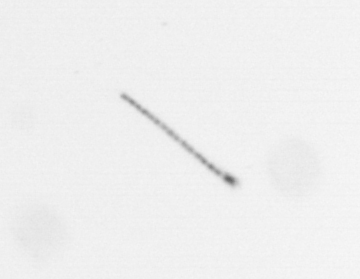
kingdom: Chromista
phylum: Ochrophyta
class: Bacillariophyceae
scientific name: Bacillariophyceae
